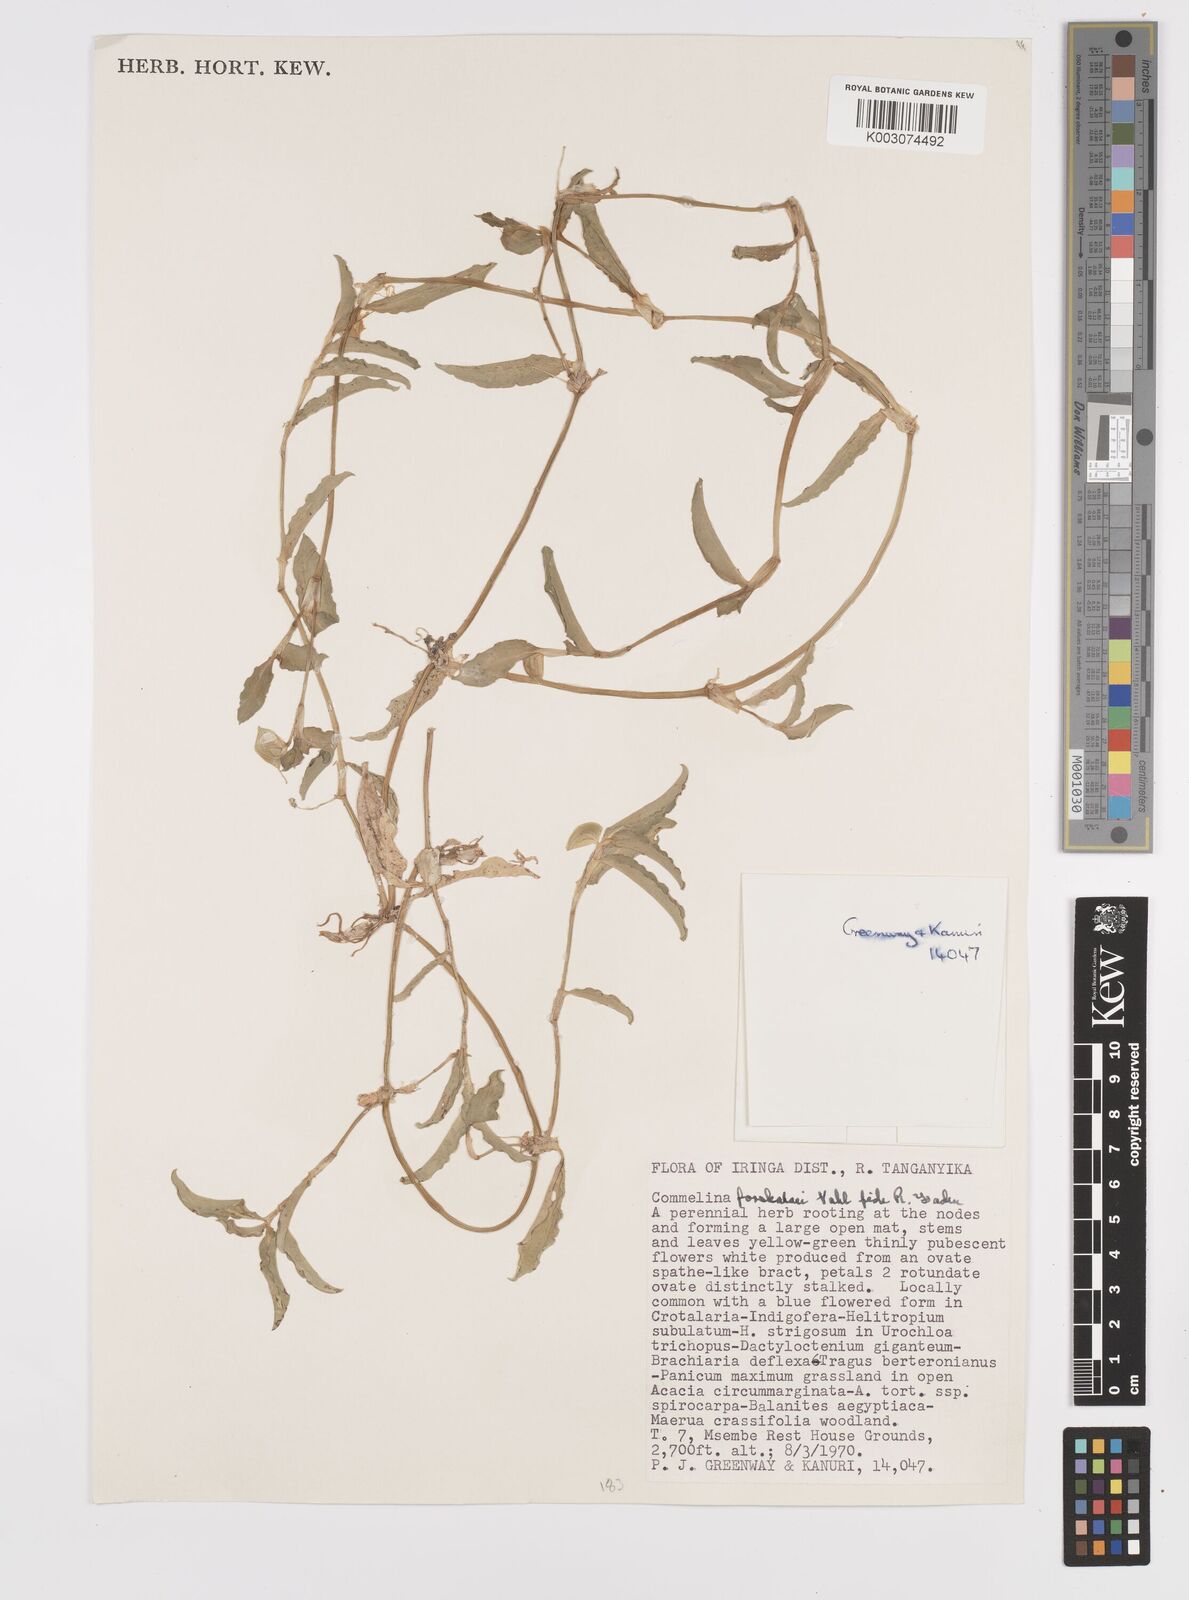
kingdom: Plantae
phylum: Tracheophyta
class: Liliopsida
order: Commelinales
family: Commelinaceae
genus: Commelina
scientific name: Commelina
